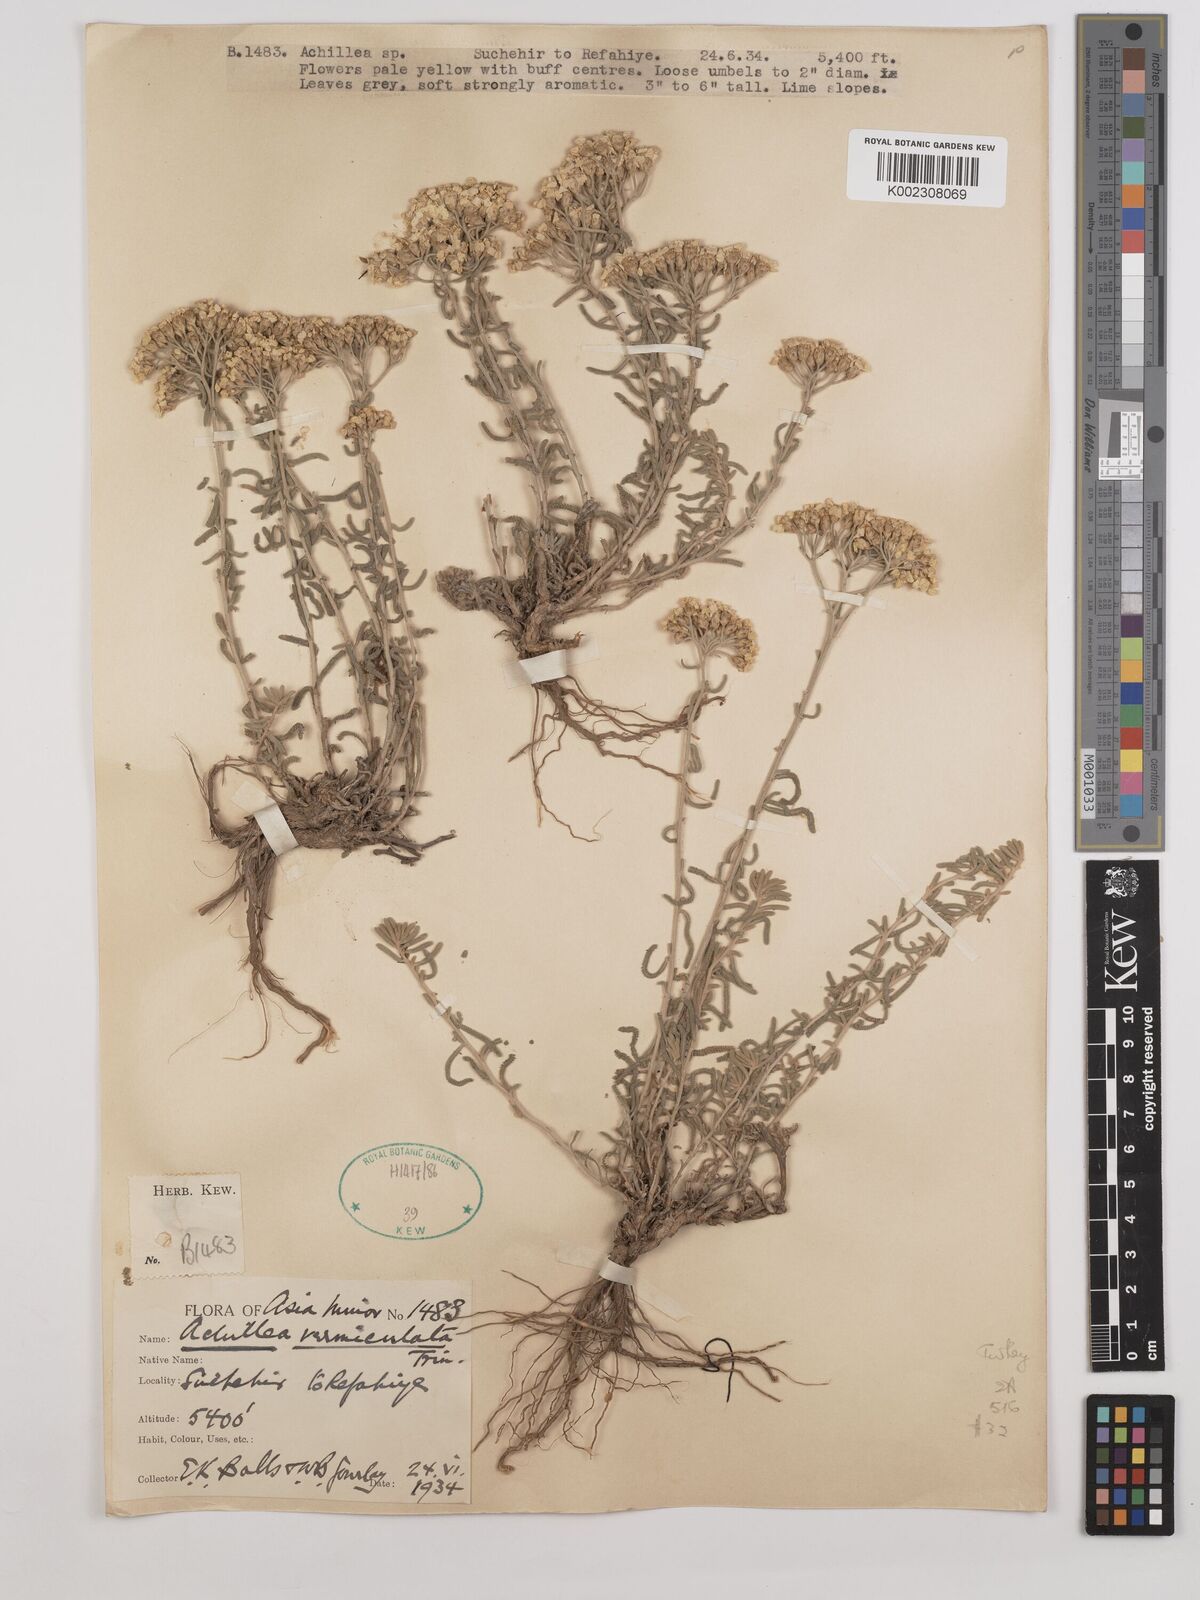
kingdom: Plantae
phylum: Tracheophyta
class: Magnoliopsida
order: Asterales
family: Asteraceae
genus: Achillea
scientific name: Achillea vermicularis
